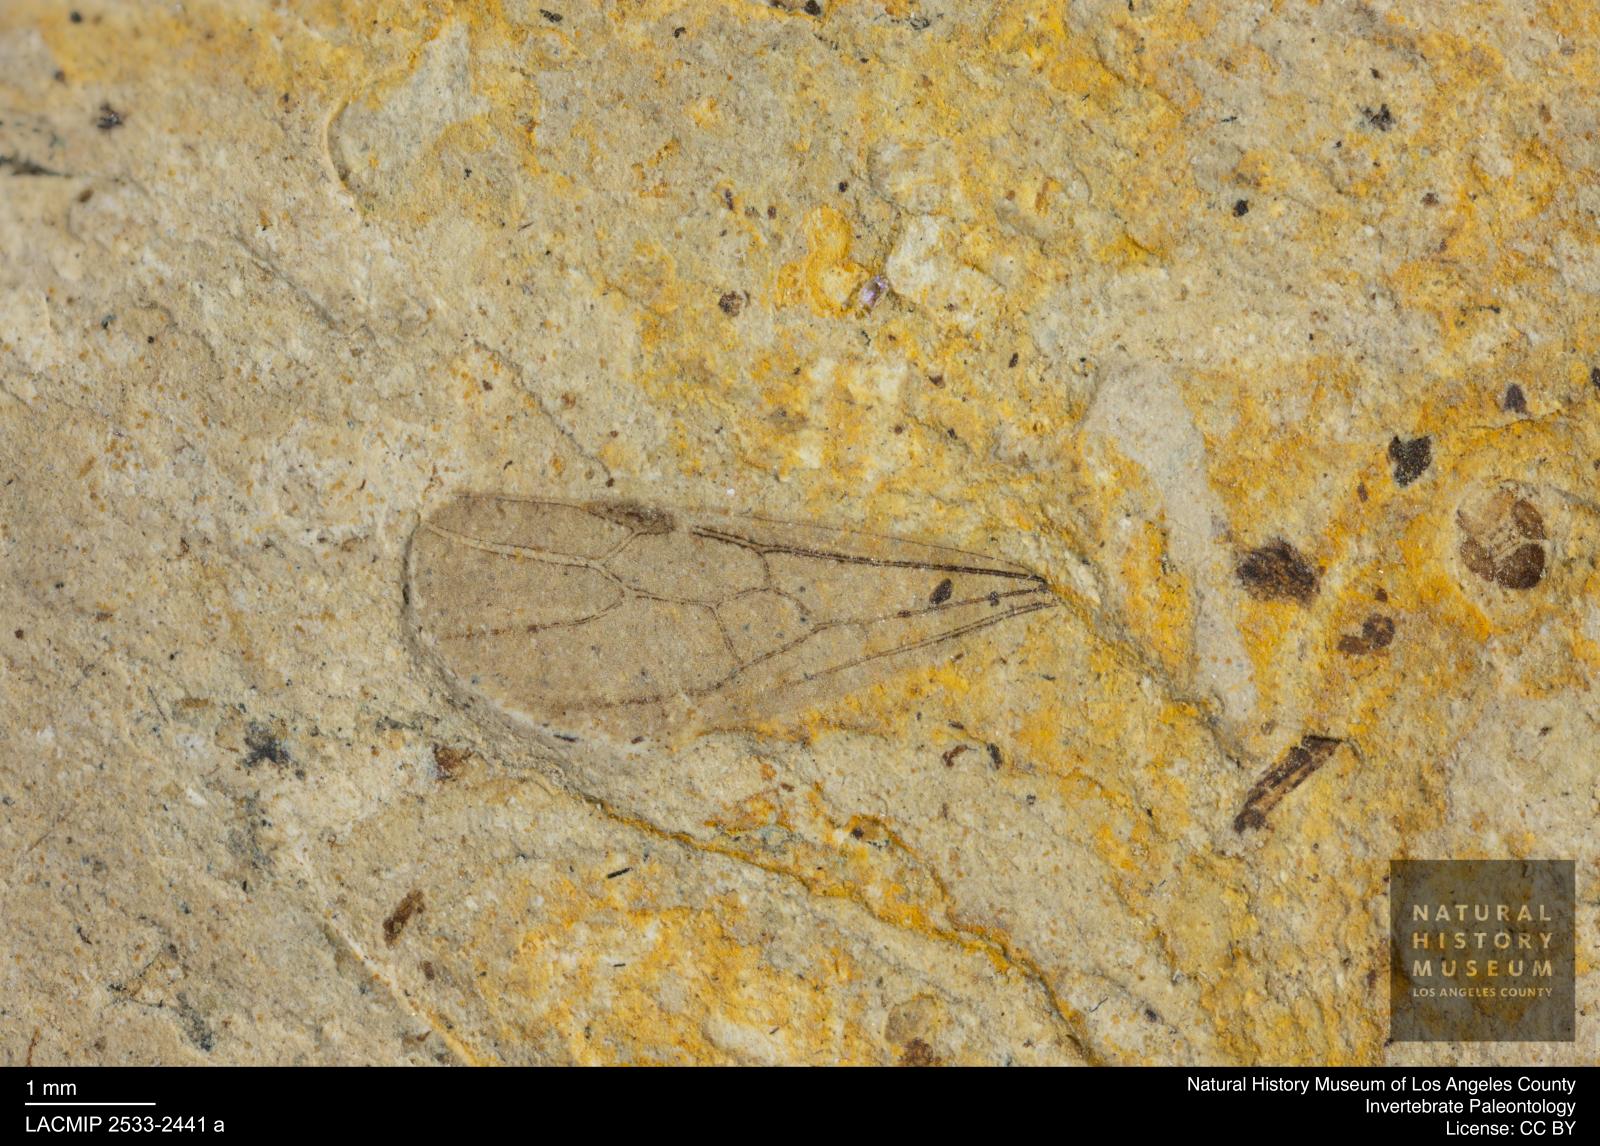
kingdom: Animalia
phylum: Arthropoda
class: Insecta
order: Hymenoptera
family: Formicidae
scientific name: Formicidae
